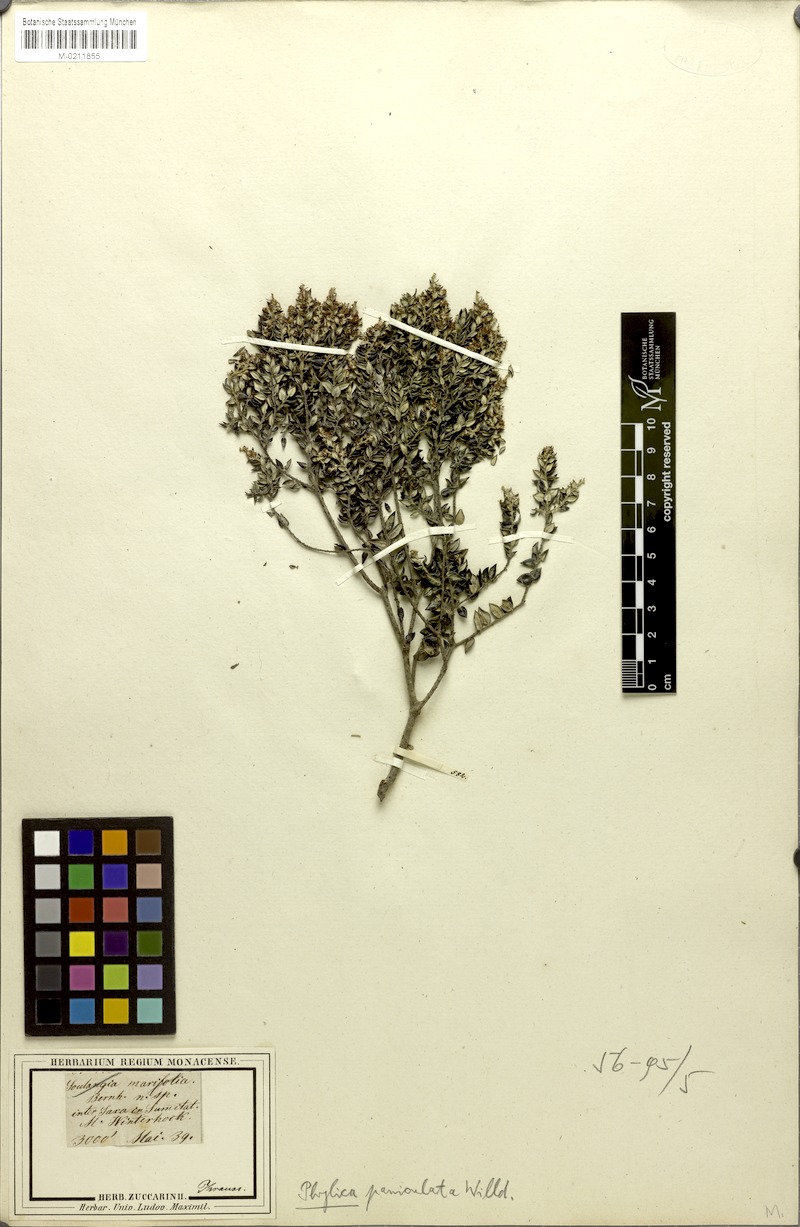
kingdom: Plantae
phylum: Tracheophyta
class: Magnoliopsida
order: Rosales
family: Rhamnaceae
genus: Phylica
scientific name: Phylica paniculata
